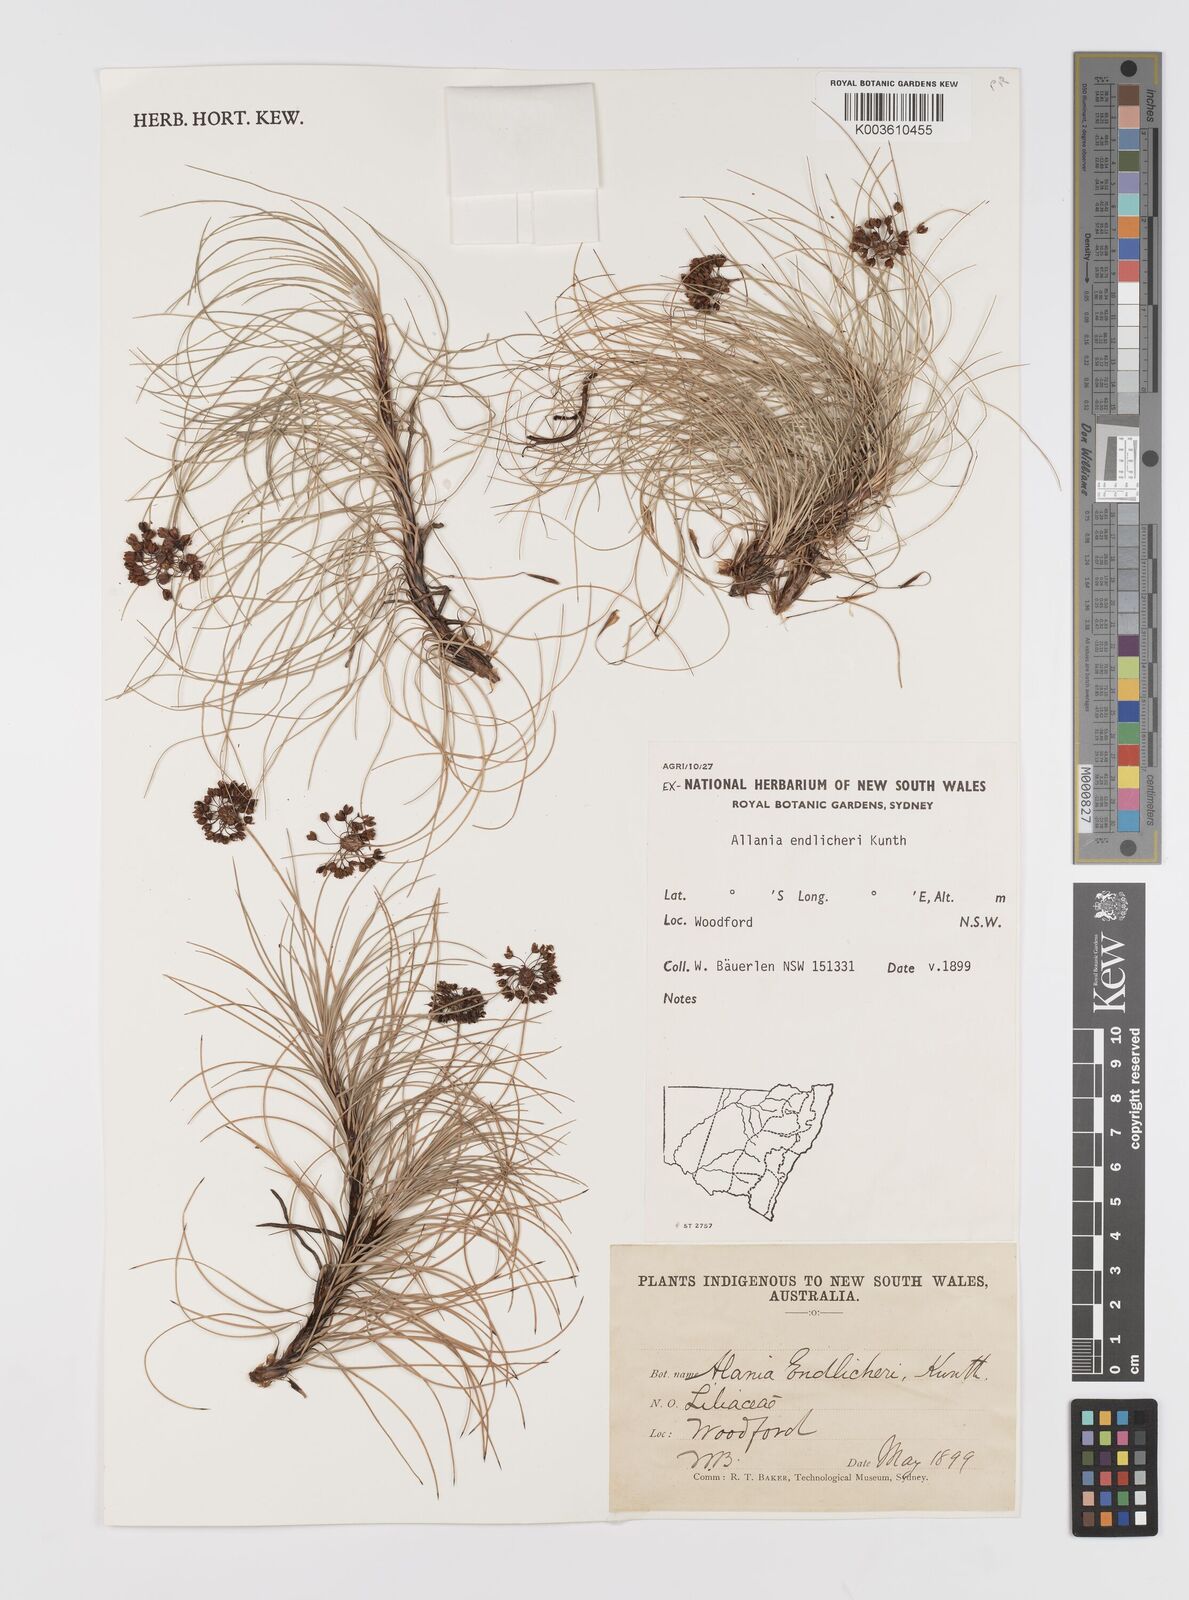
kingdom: Plantae
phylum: Tracheophyta
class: Liliopsida
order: Asparagales
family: Boryaceae
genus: Alania
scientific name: Alania cunninghamii
